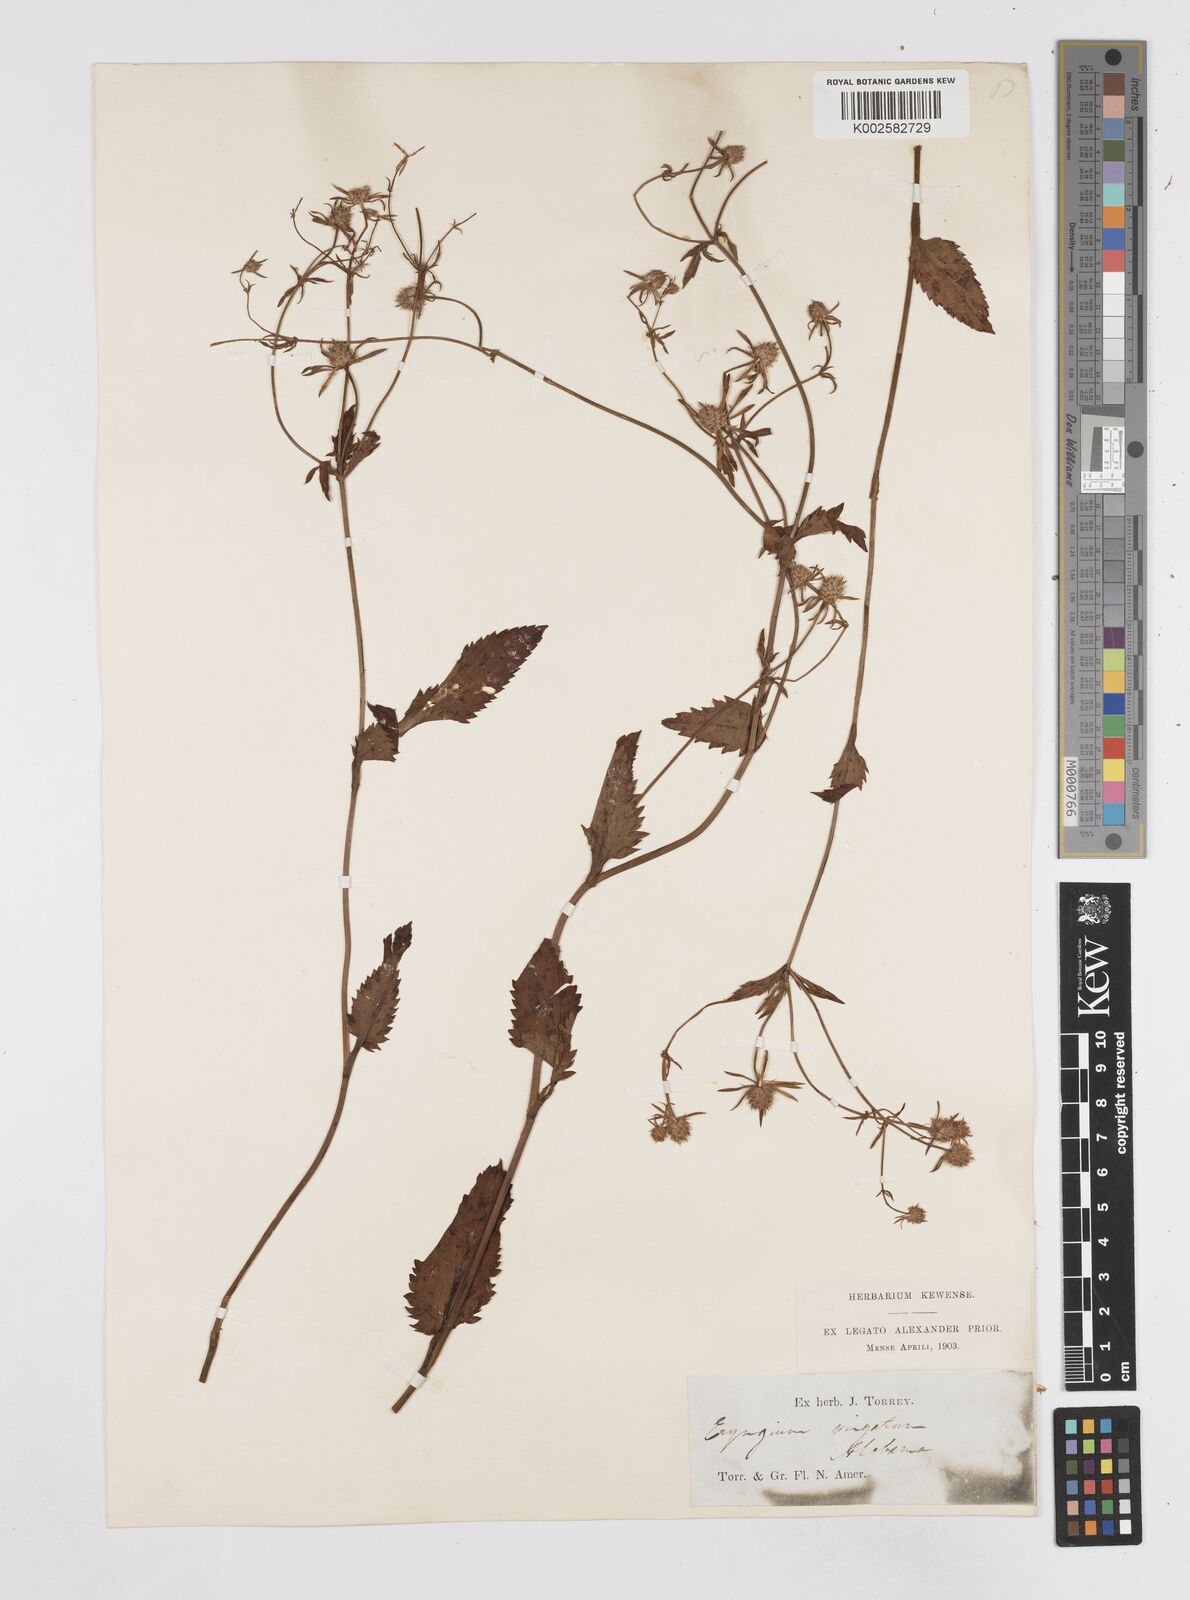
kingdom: Plantae
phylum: Tracheophyta
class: Magnoliopsida
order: Apiales
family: Apiaceae
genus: Eryngium
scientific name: Eryngium integrifolium
